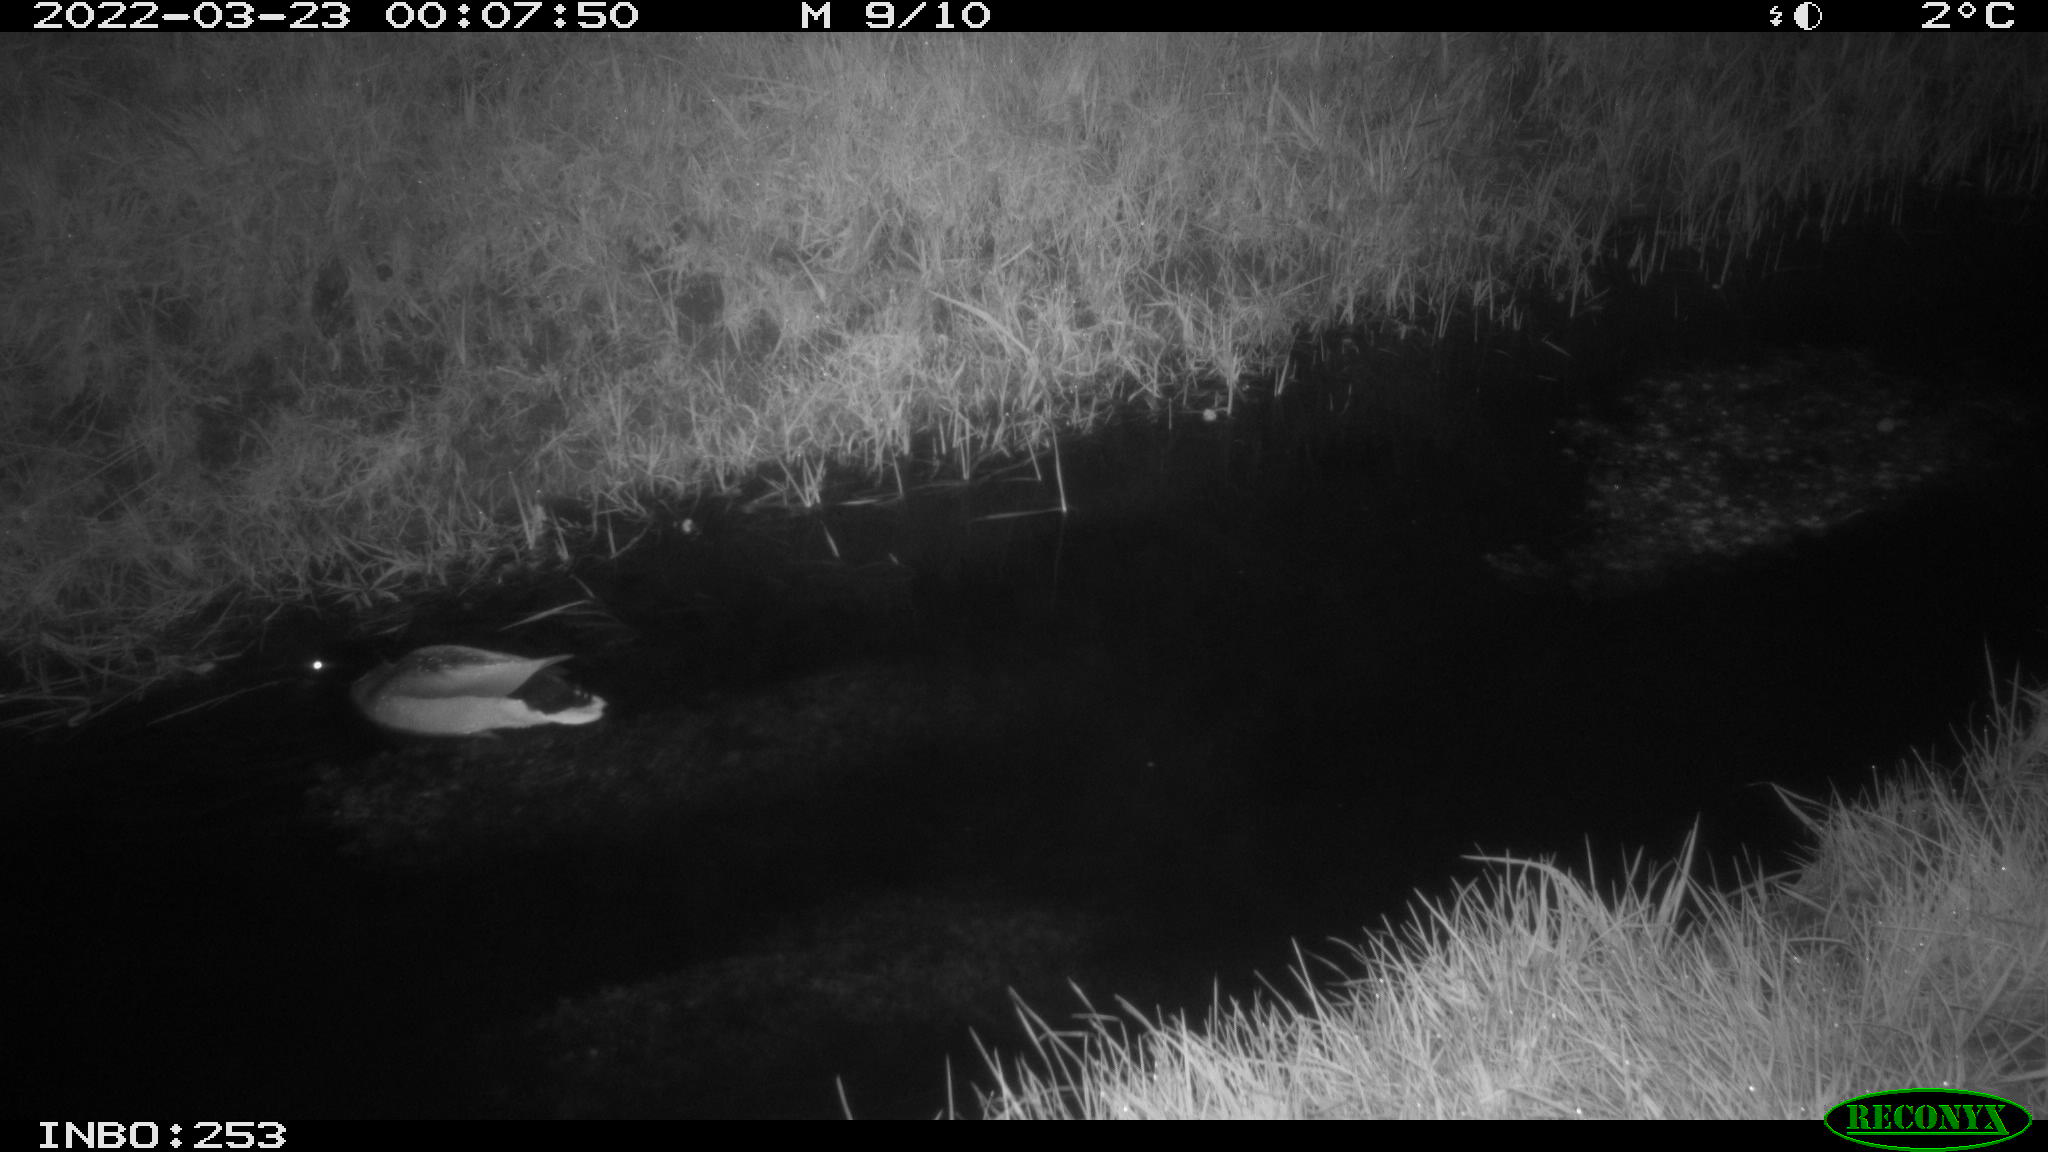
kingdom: Animalia
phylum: Chordata
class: Aves
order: Anseriformes
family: Anatidae
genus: Anas
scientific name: Anas platyrhynchos
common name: Mallard
